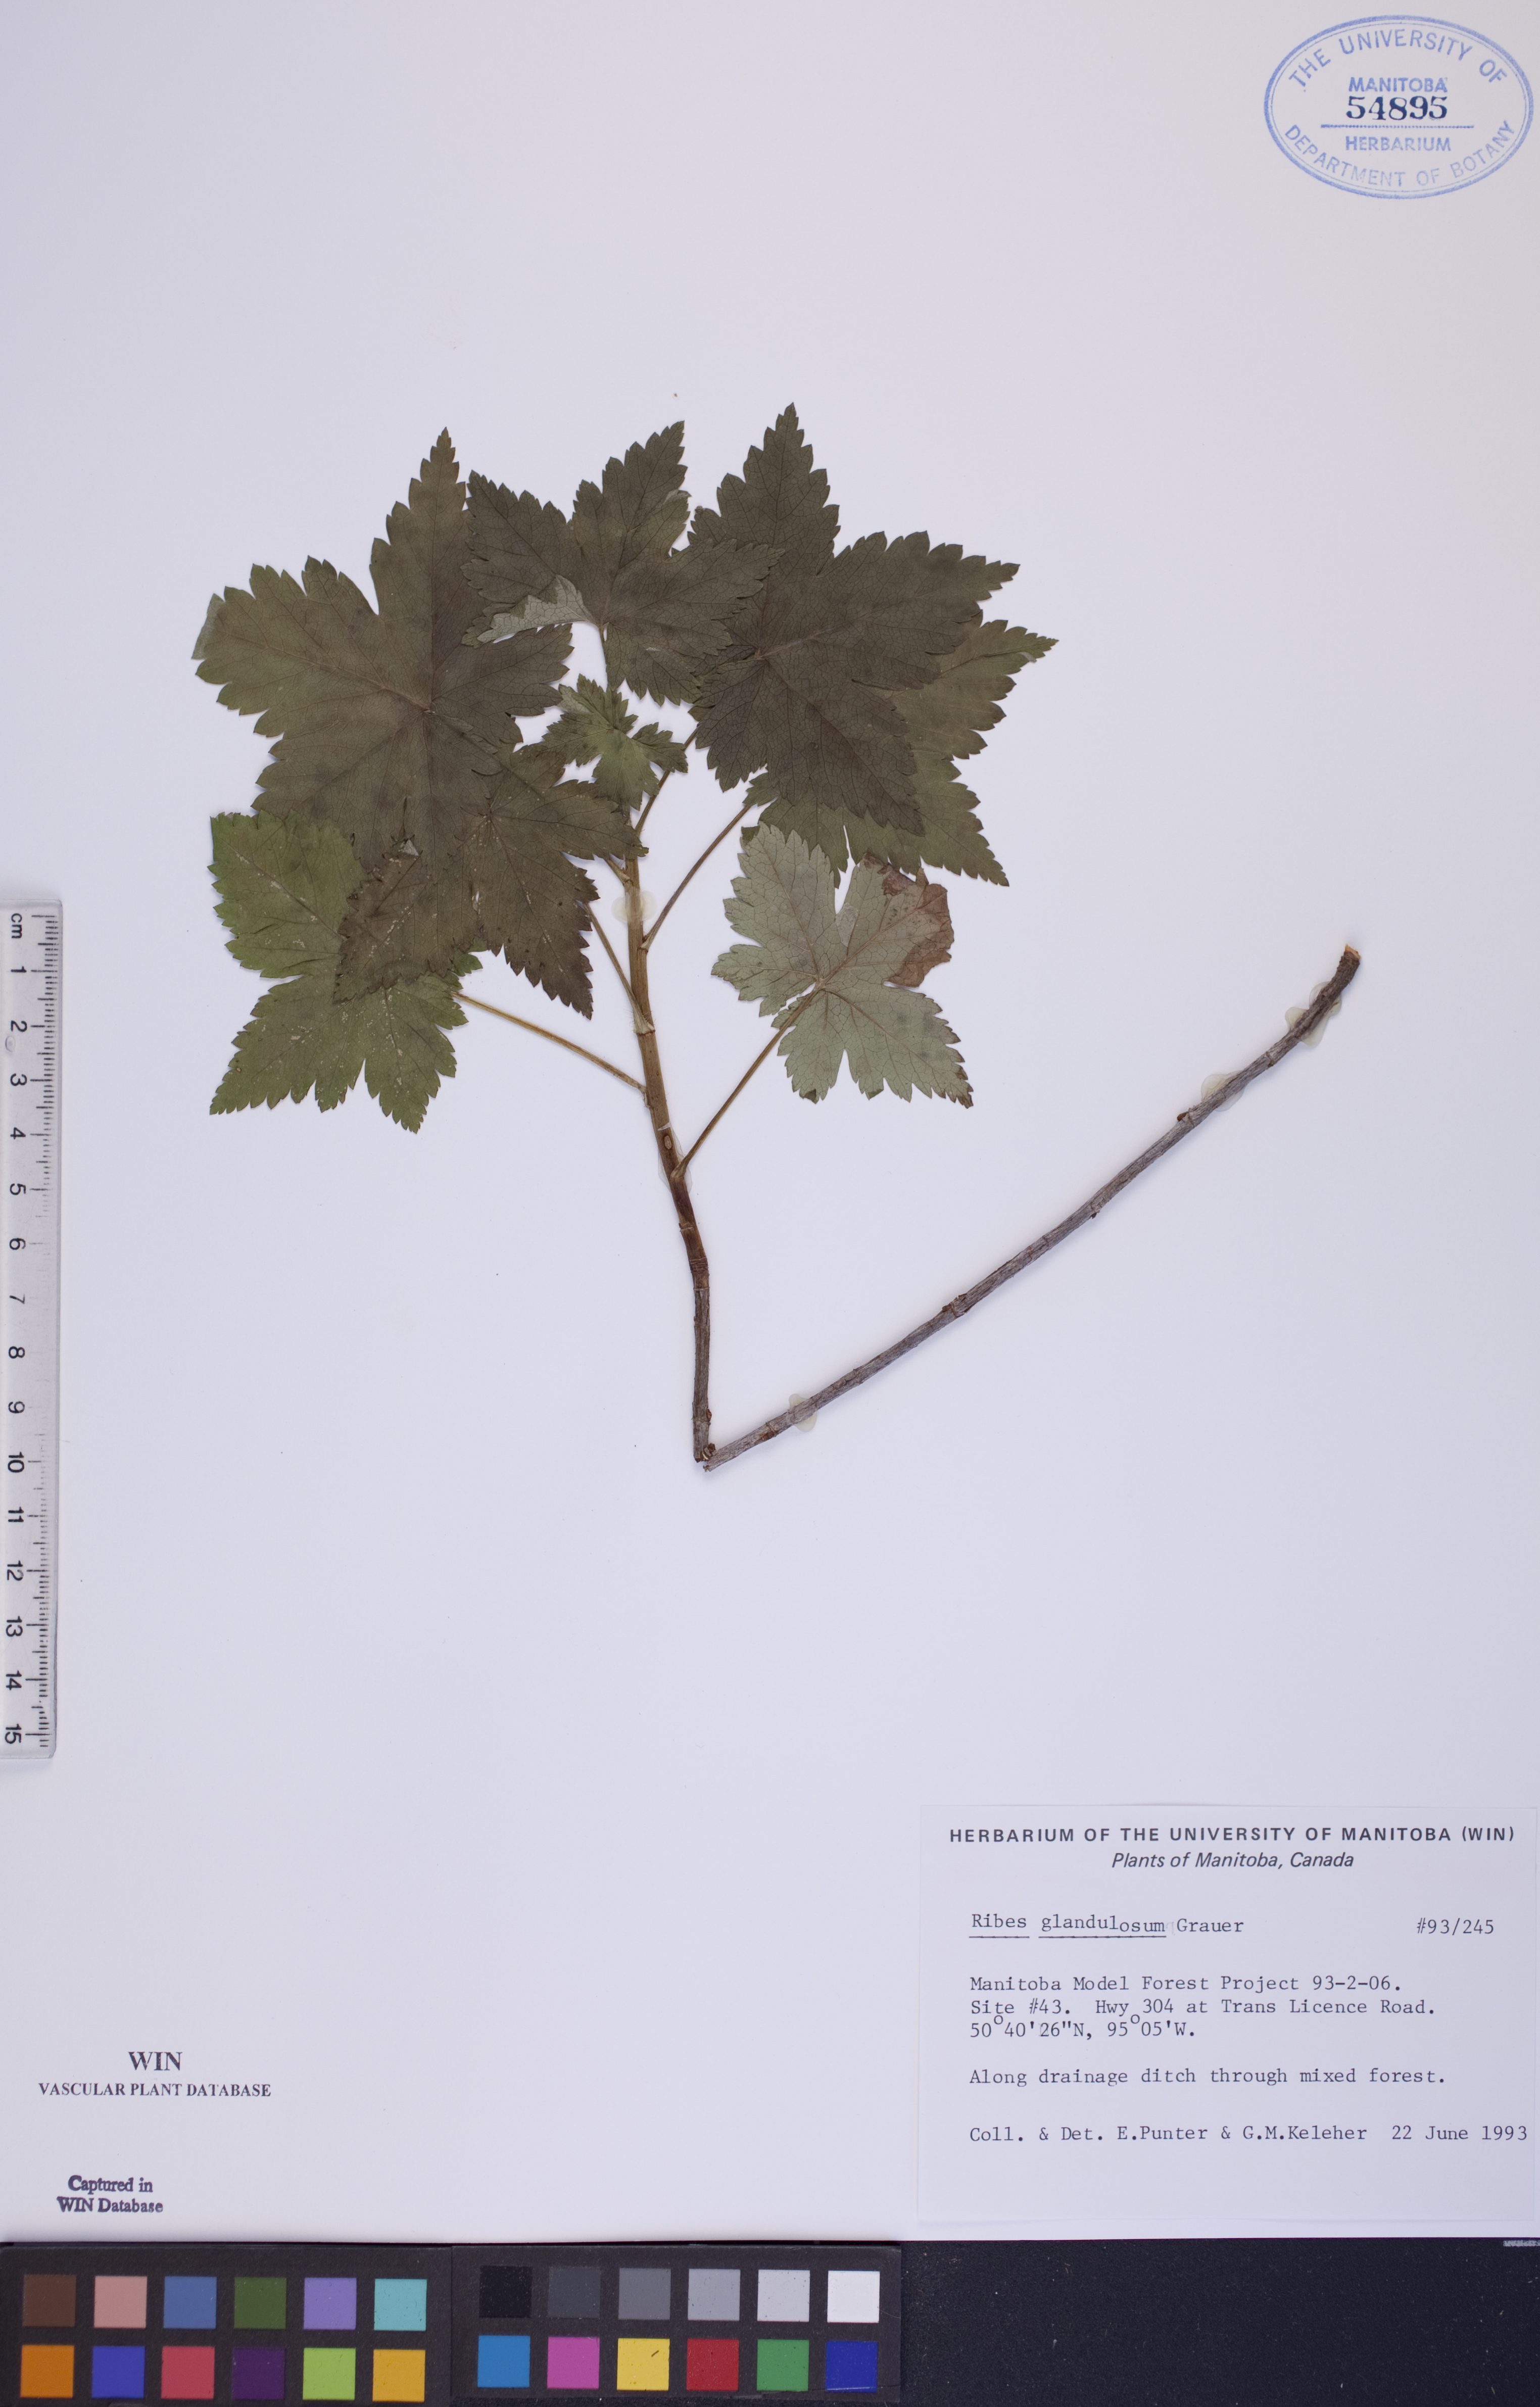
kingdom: Plantae
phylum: Tracheophyta
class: Magnoliopsida
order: Saxifragales
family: Grossulariaceae
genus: Ribes
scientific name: Ribes glandulosum
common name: Skunk currant
